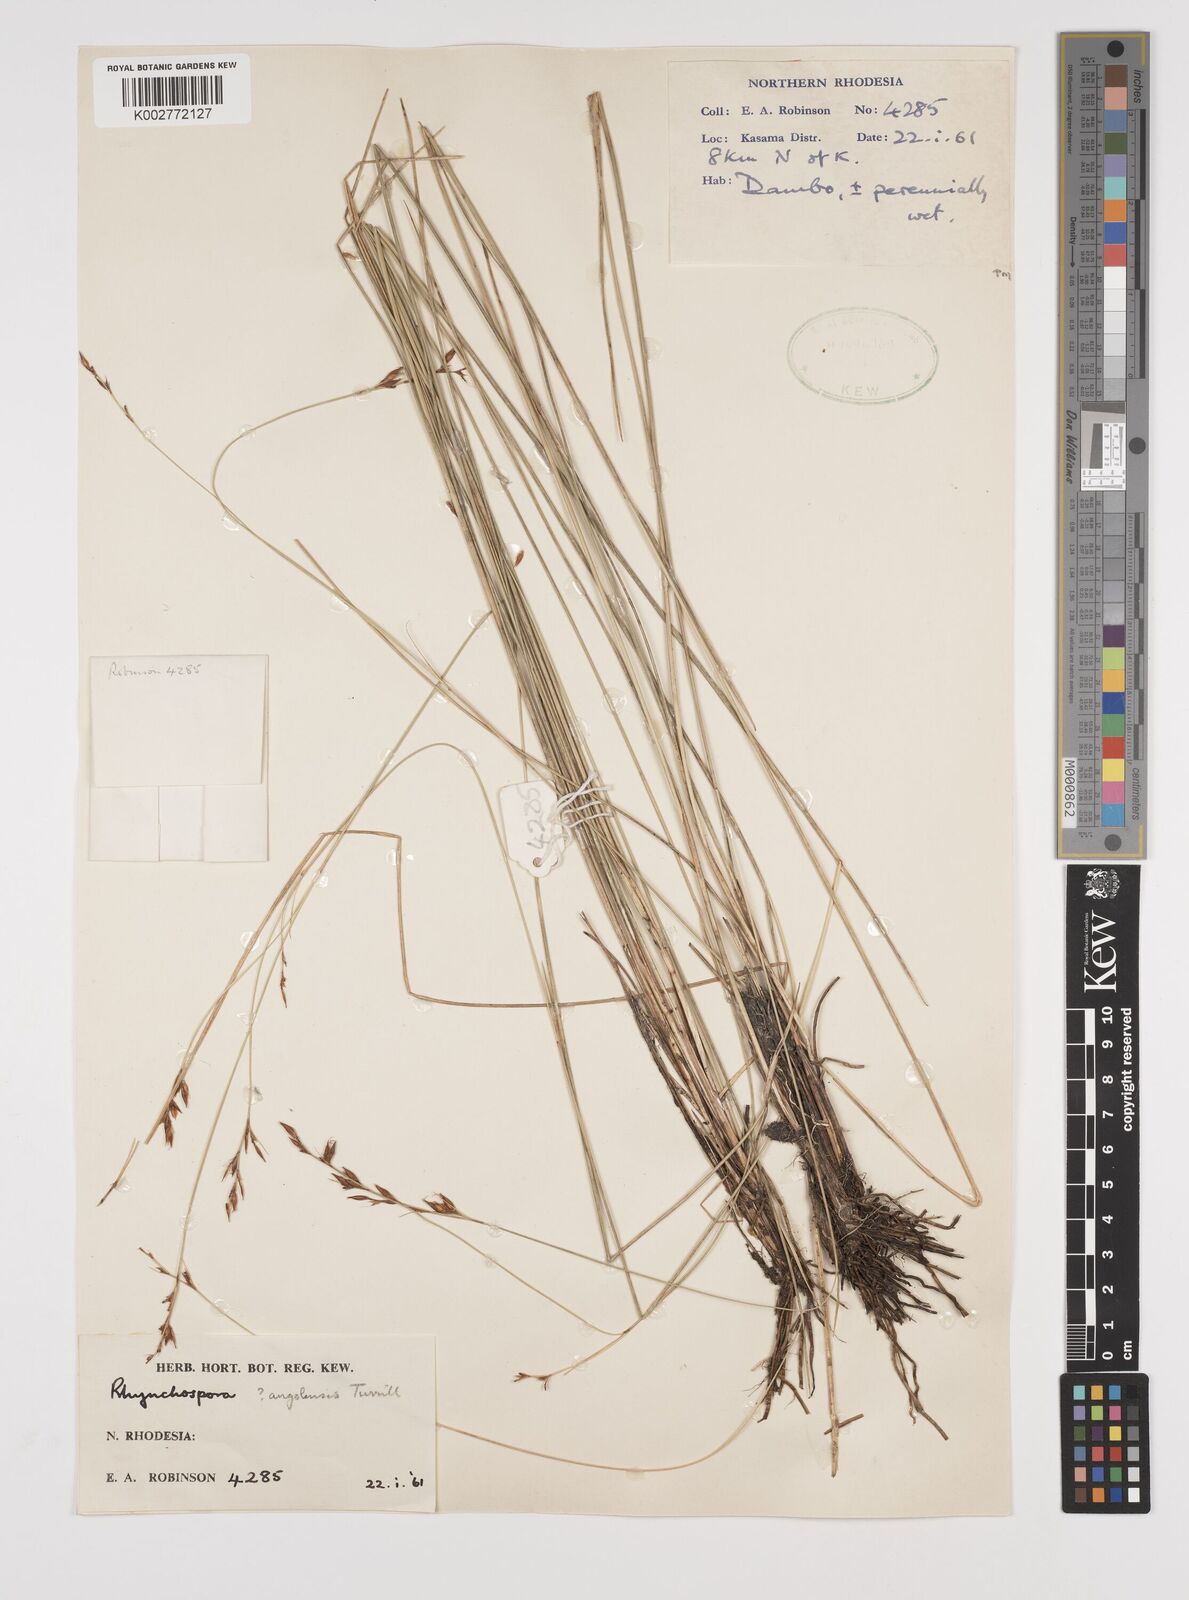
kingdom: Plantae
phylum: Tracheophyta
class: Liliopsida
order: Poales
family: Cyperaceae
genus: Rhynchospora
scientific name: Rhynchospora angolensis
